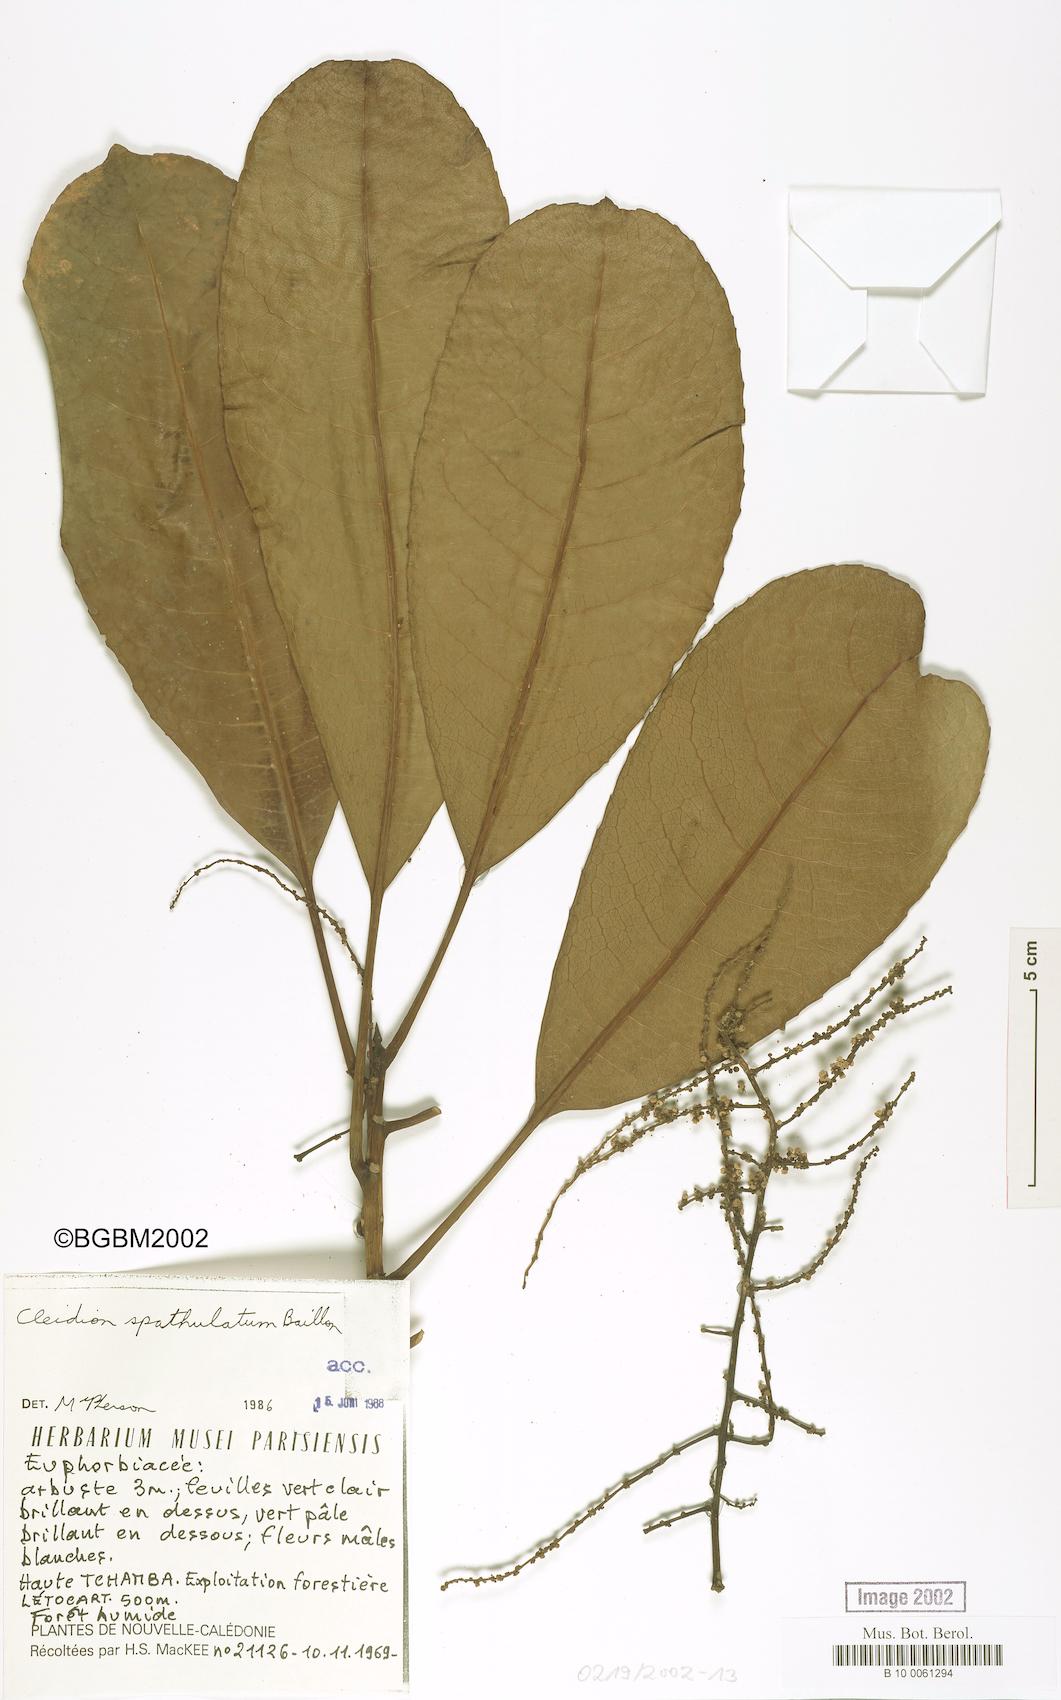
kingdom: Plantae
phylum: Tracheophyta
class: Magnoliopsida
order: Malpighiales
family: Euphorbiaceae
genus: Cleidion
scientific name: Cleidion spathulatum
